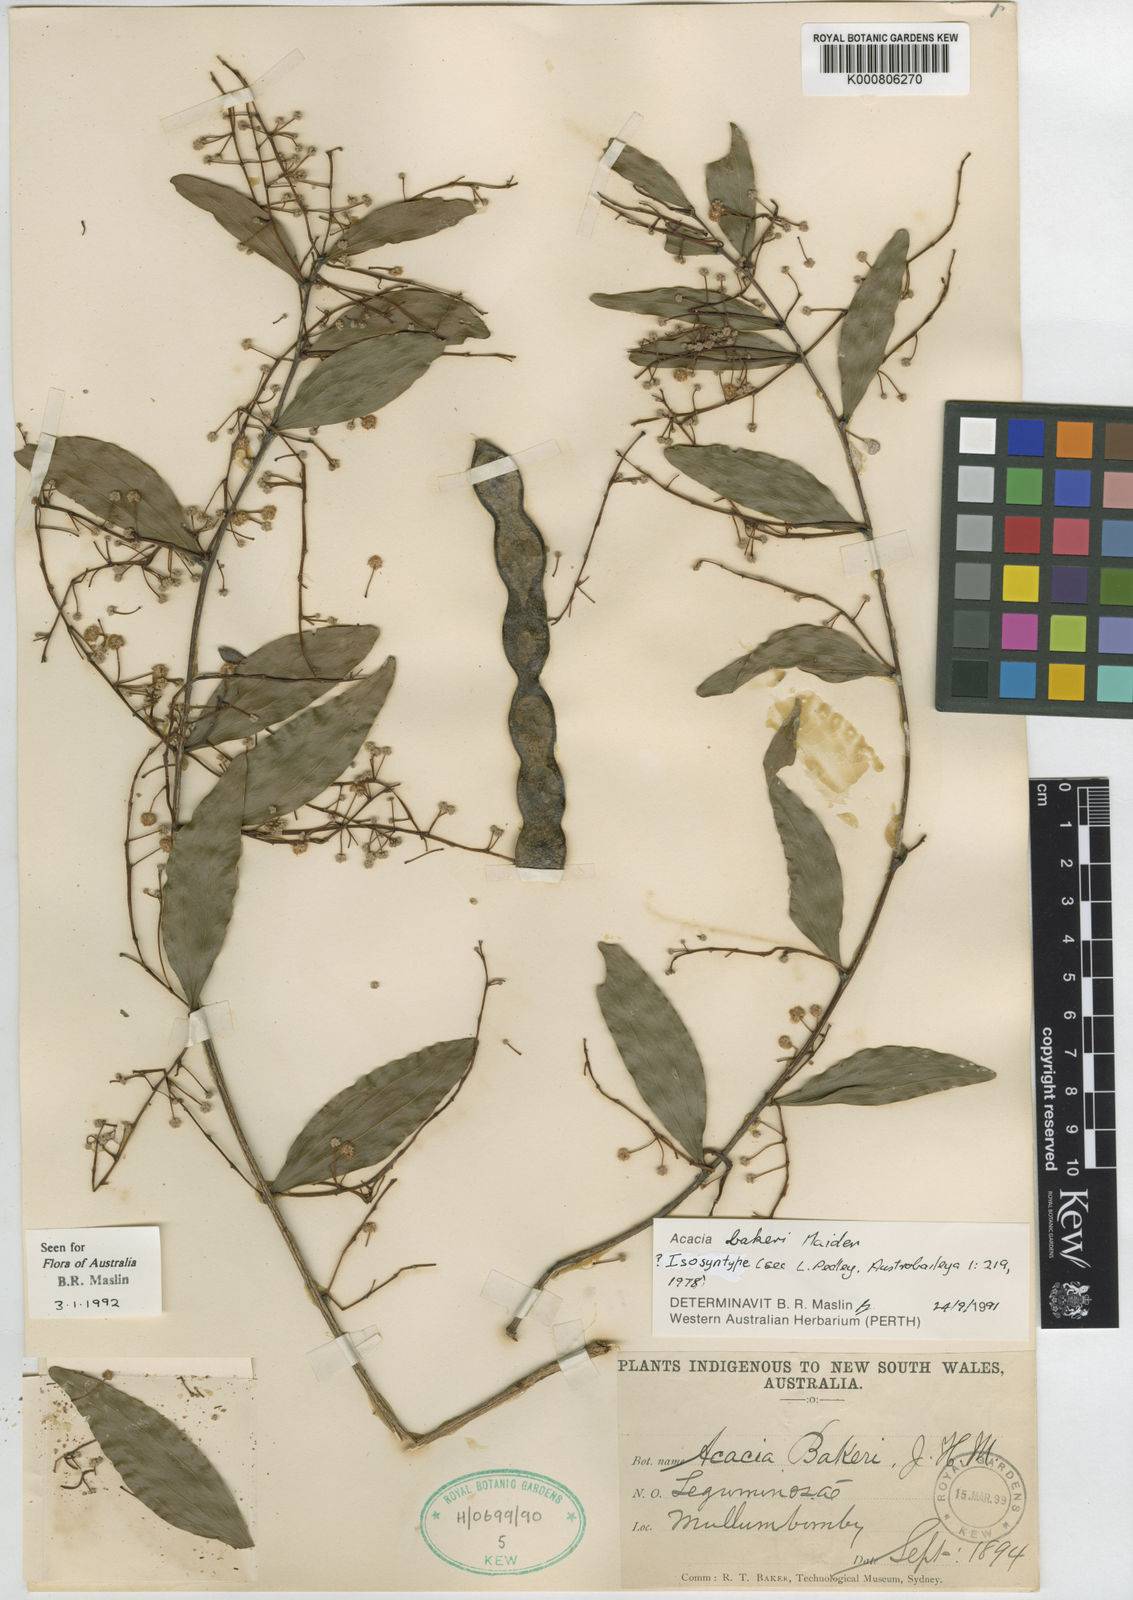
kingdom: Plantae
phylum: Tracheophyta
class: Magnoliopsida
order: Fabales
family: Fabaceae
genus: Acacia
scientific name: Acacia bakeri
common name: Scrub wattle
